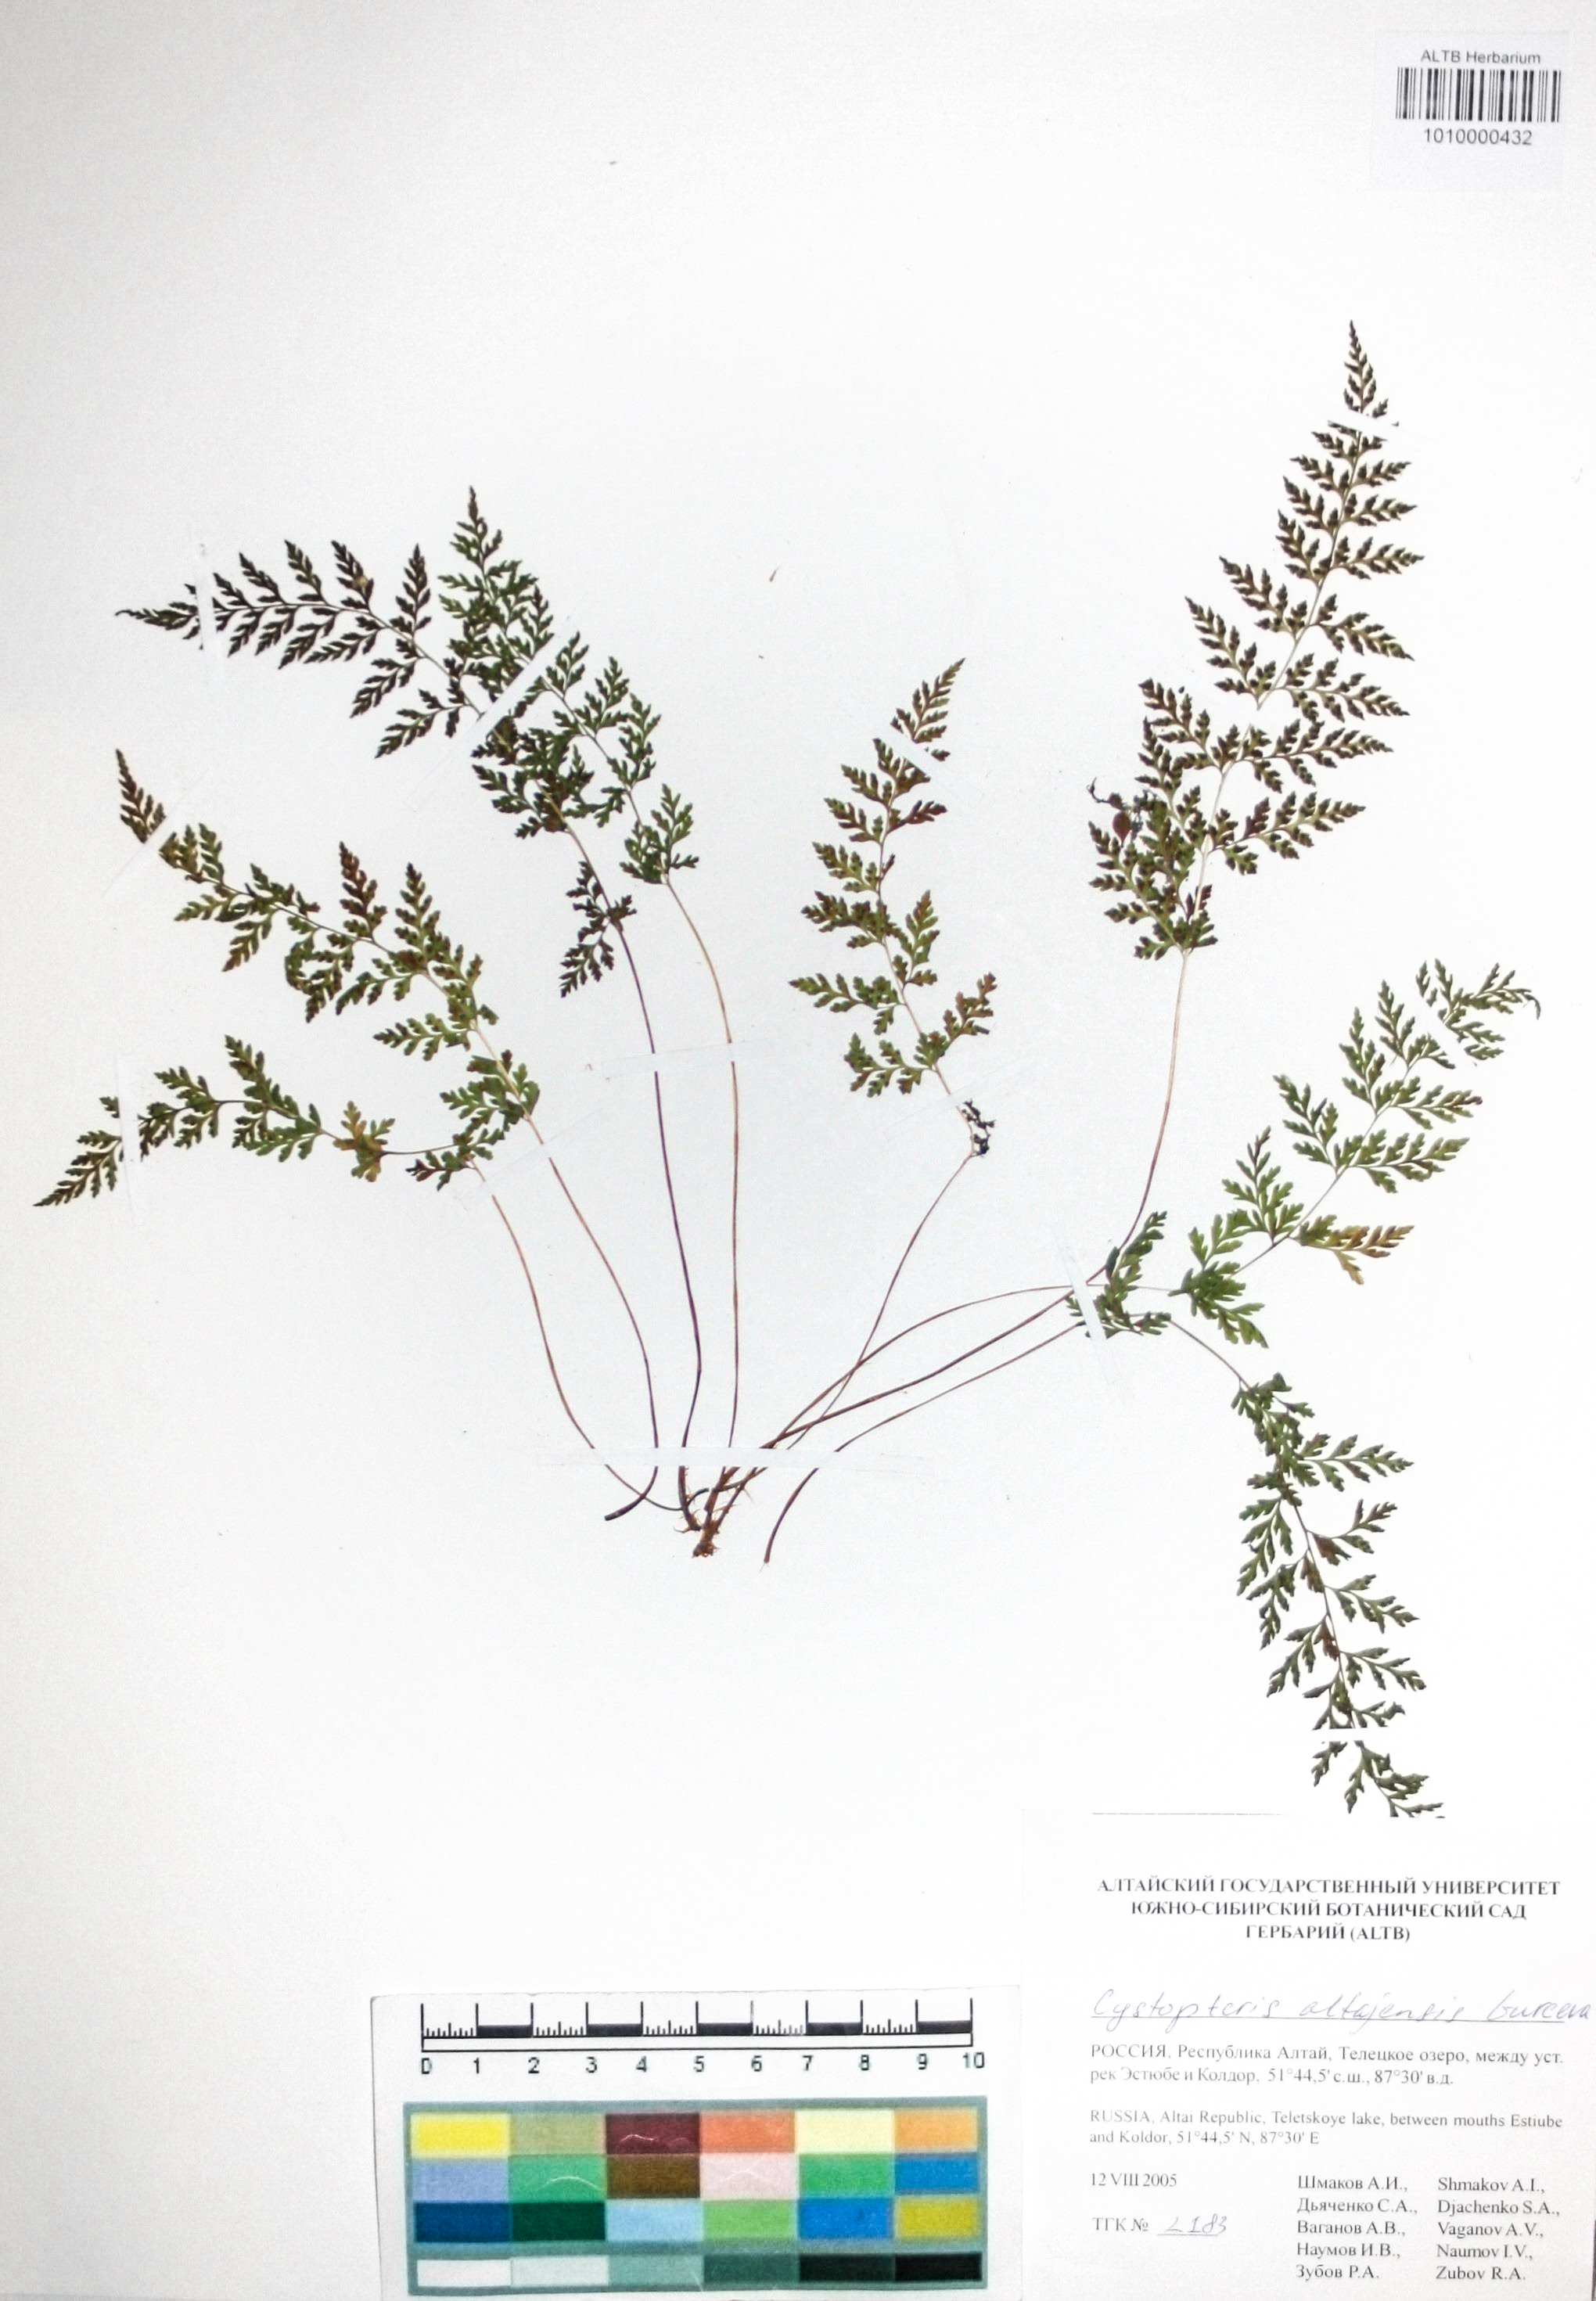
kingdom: Plantae
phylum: Tracheophyta
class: Polypodiopsida
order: Polypodiales
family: Cystopteridaceae
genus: Cystopteris
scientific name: Cystopteris diaphana
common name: Greenish bladder-fern
